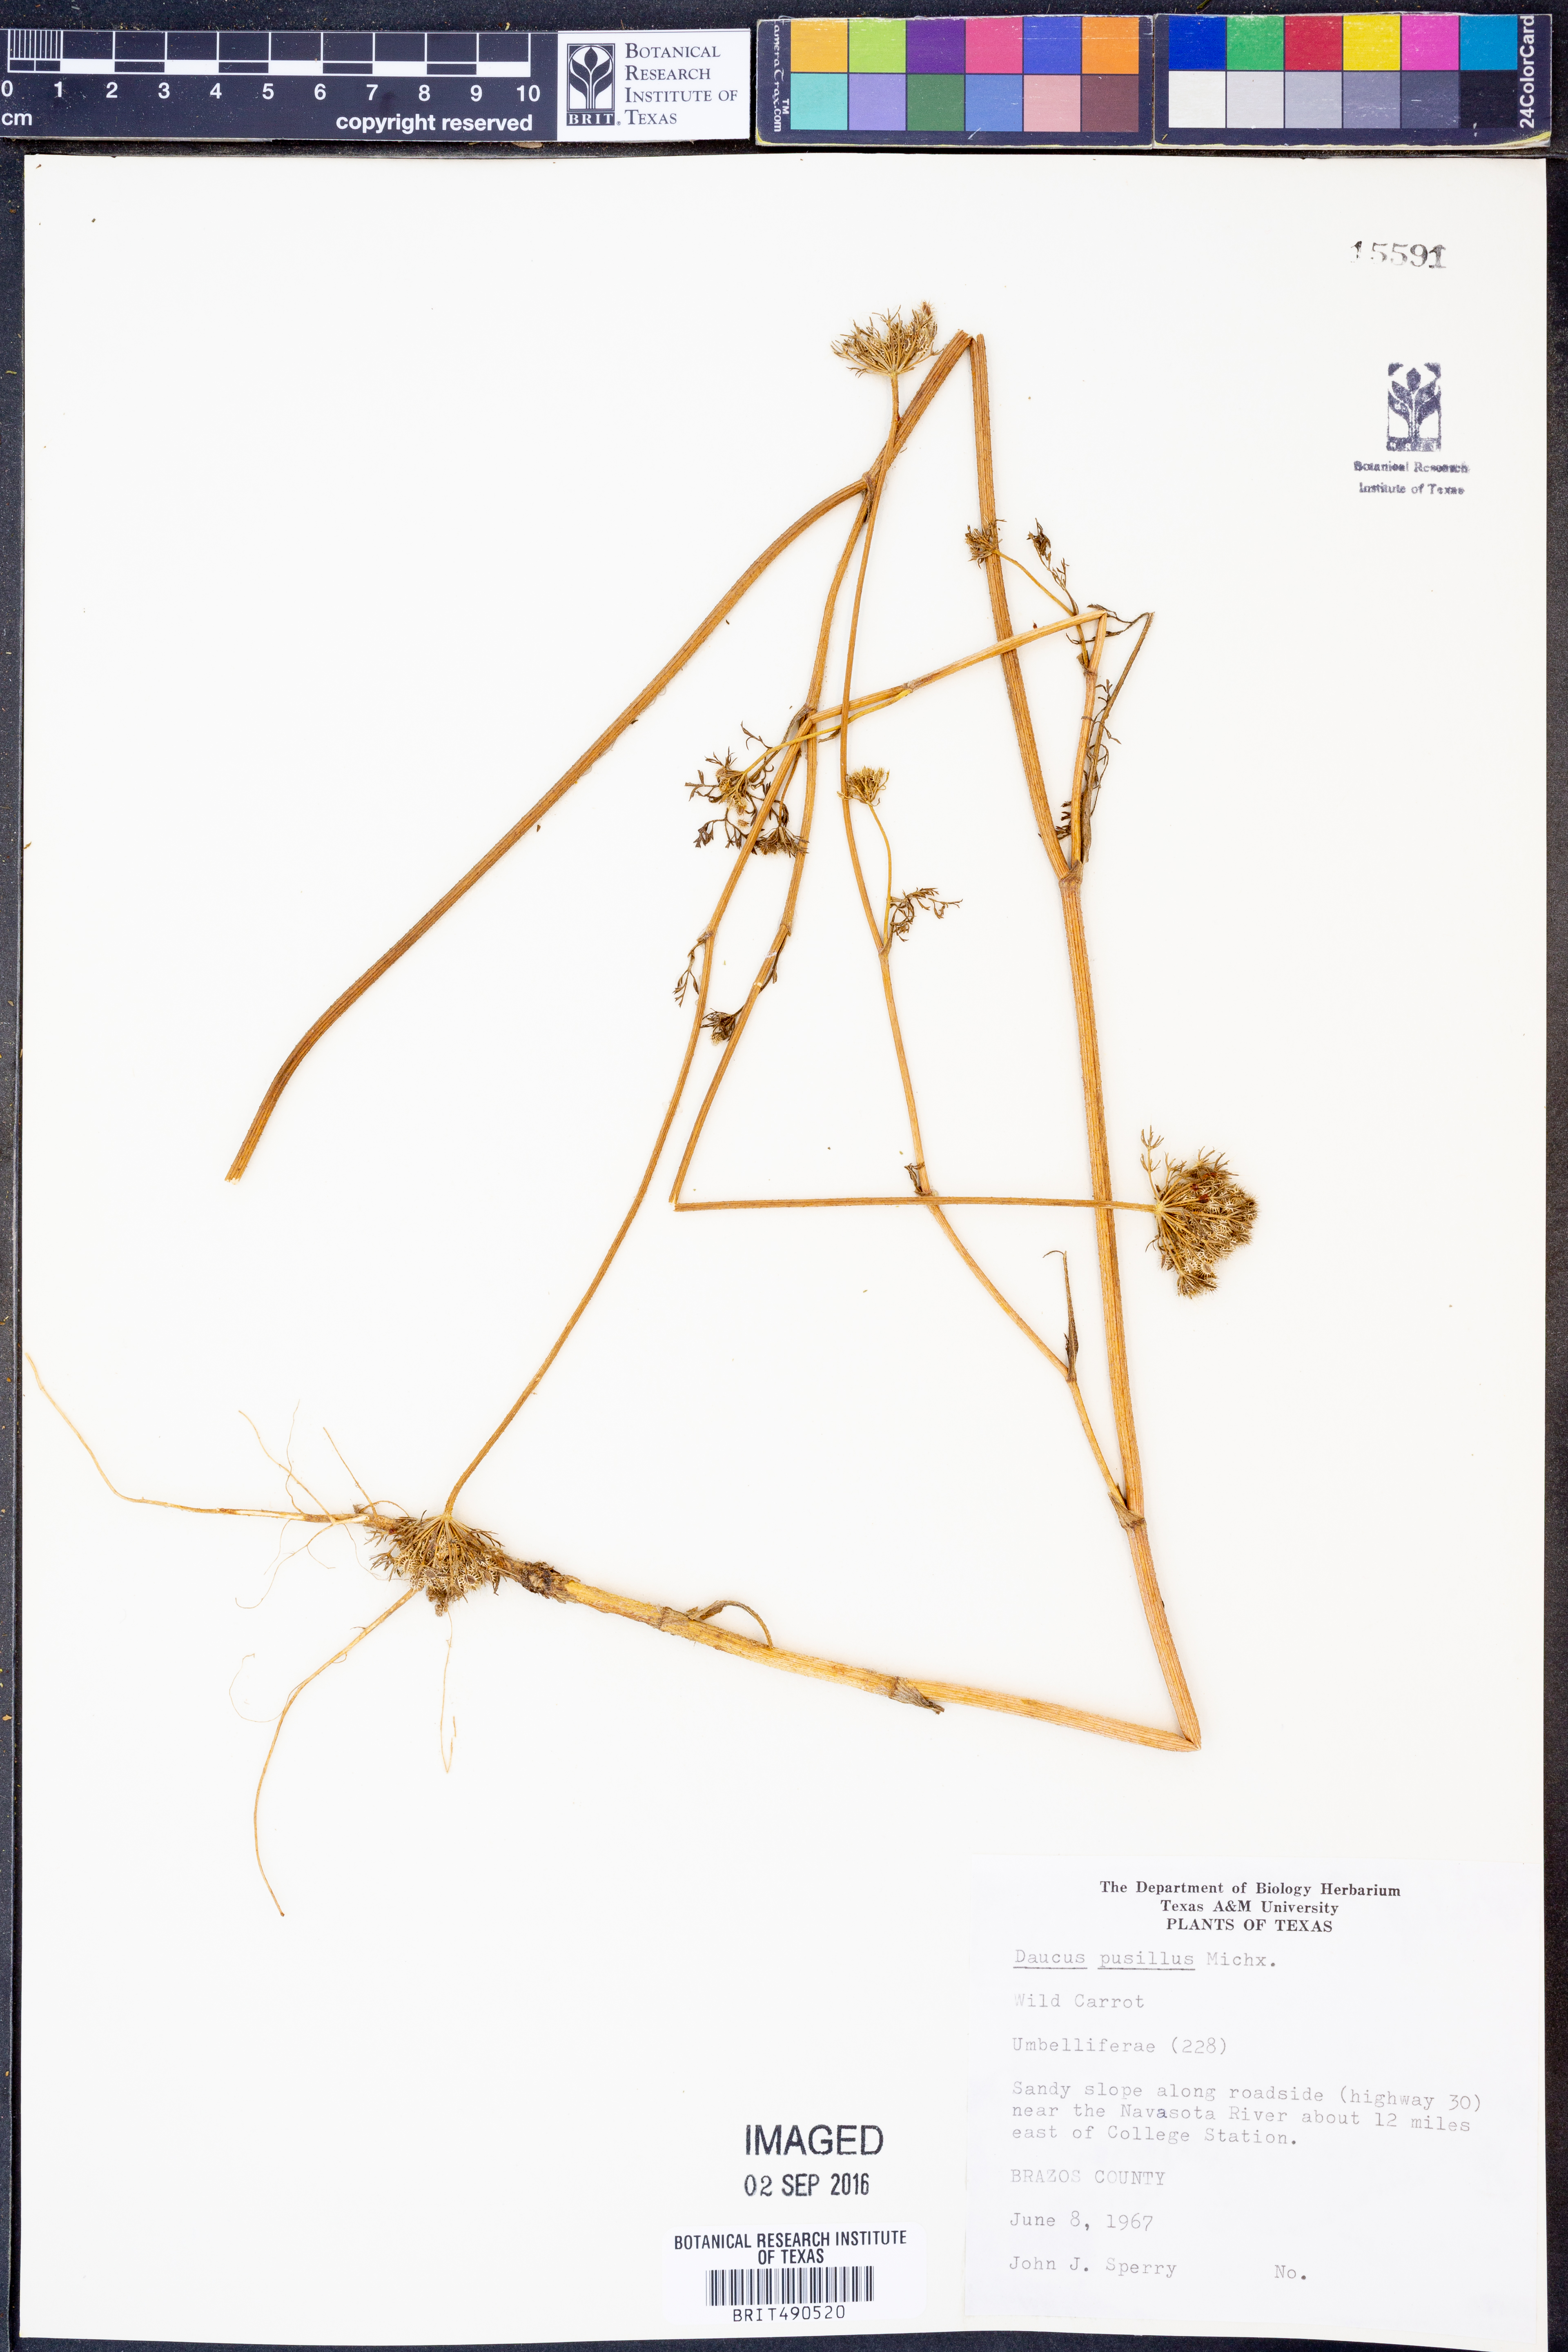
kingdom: Plantae
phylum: Tracheophyta
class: Magnoliopsida
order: Apiales
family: Apiaceae
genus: Daucus
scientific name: Daucus pusillus
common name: Southwest wild carrot
